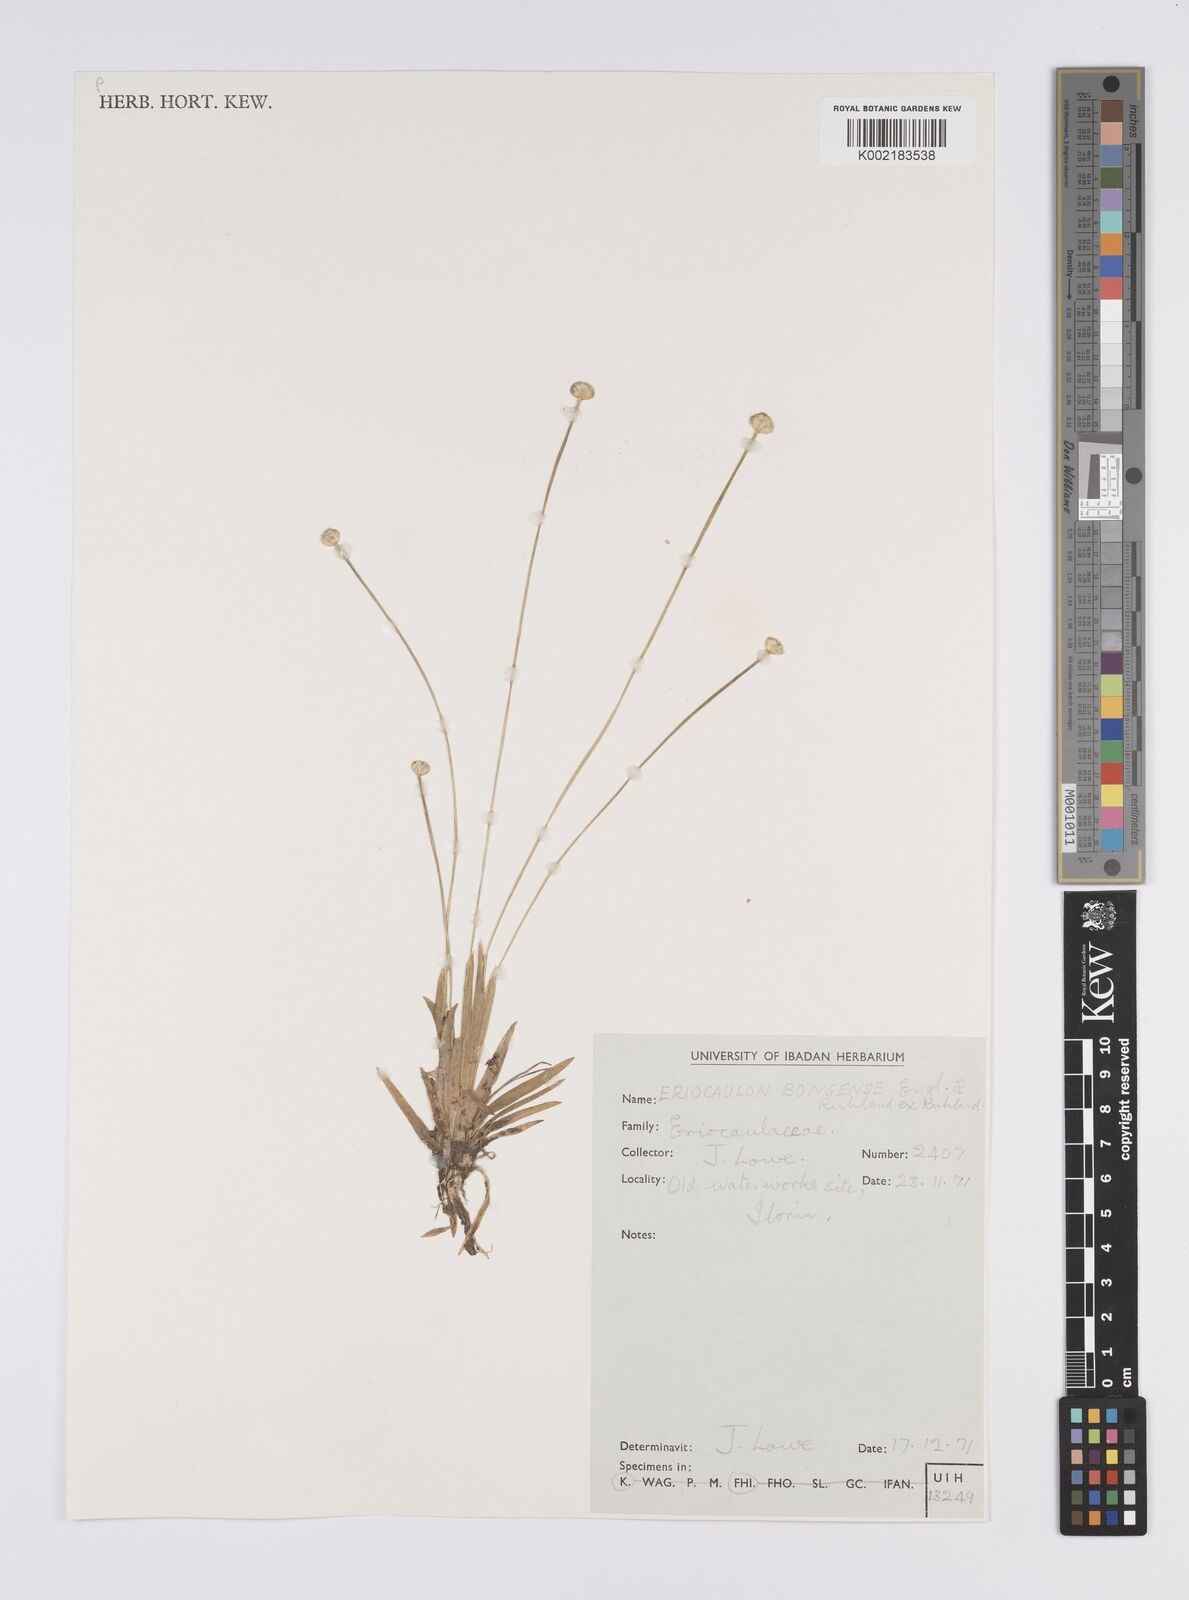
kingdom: Plantae
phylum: Tracheophyta
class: Liliopsida
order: Poales
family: Eriocaulaceae
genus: Eriocaulon
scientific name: Eriocaulon bongense
